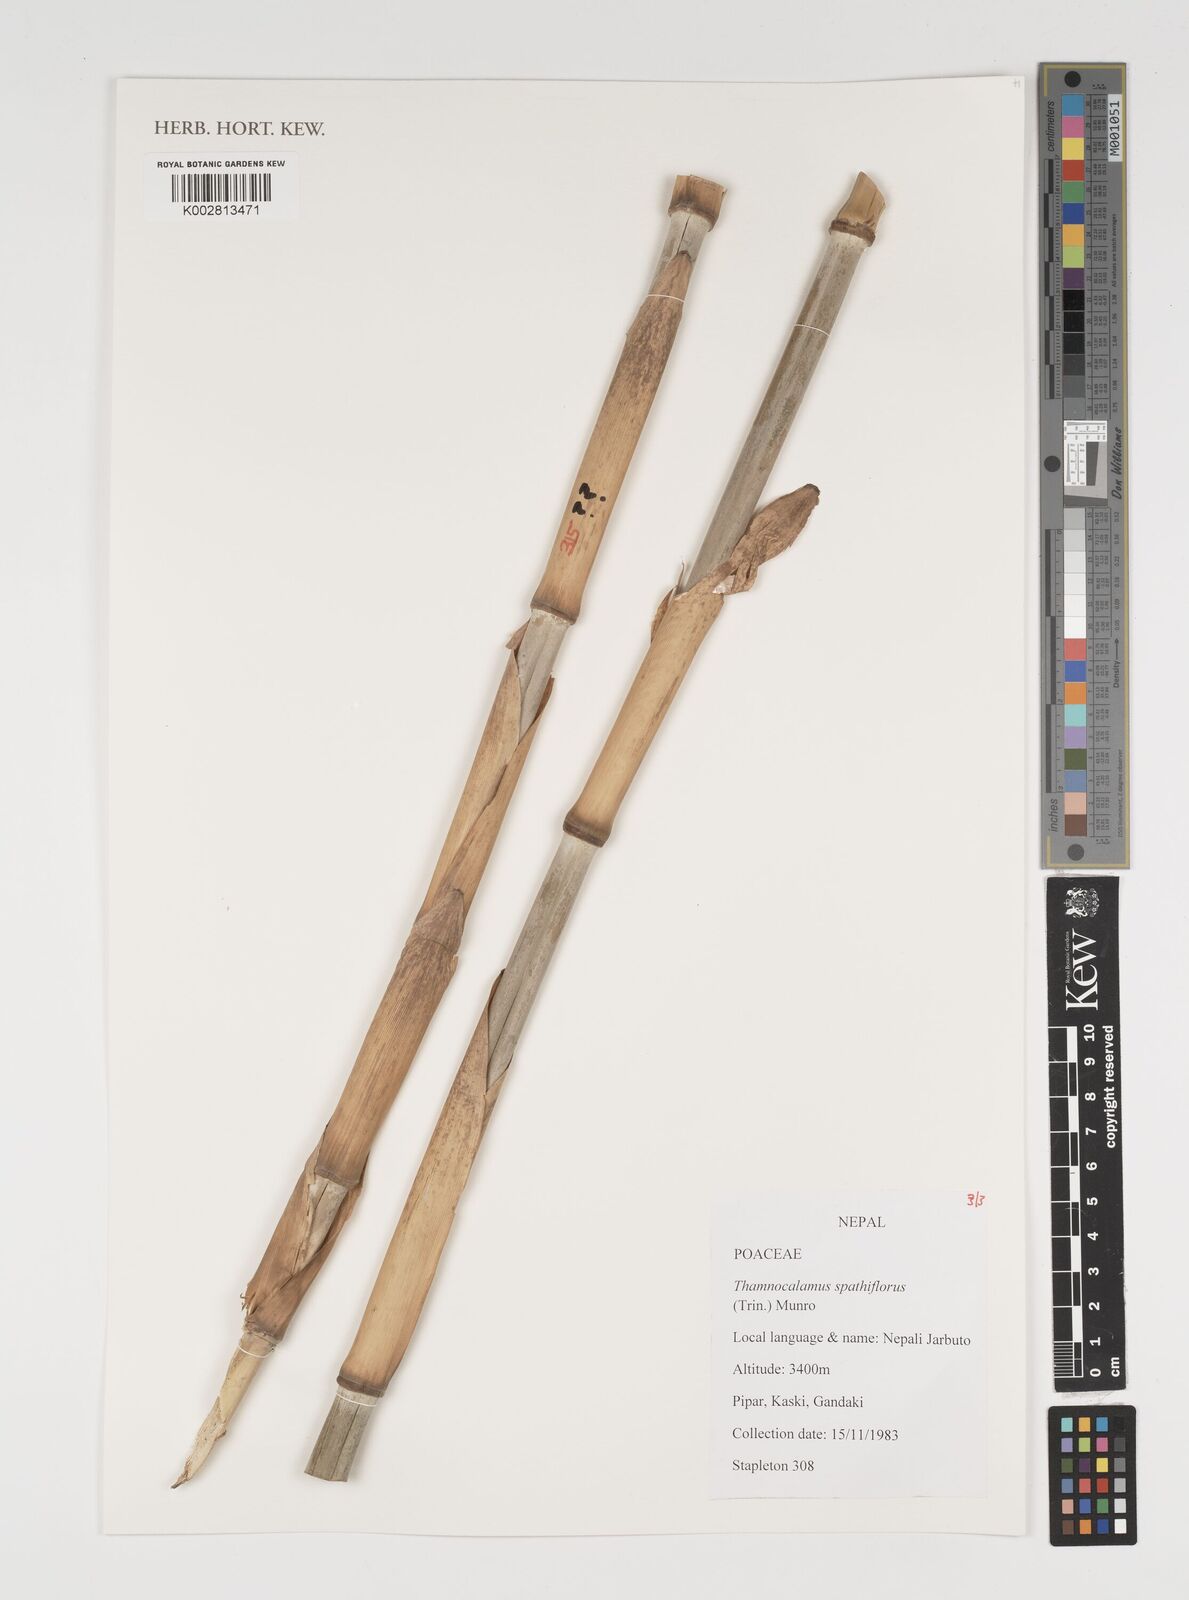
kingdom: Plantae
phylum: Tracheophyta
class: Liliopsida
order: Poales
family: Poaceae
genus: Thamnocalamus
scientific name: Thamnocalamus spathiflorus
